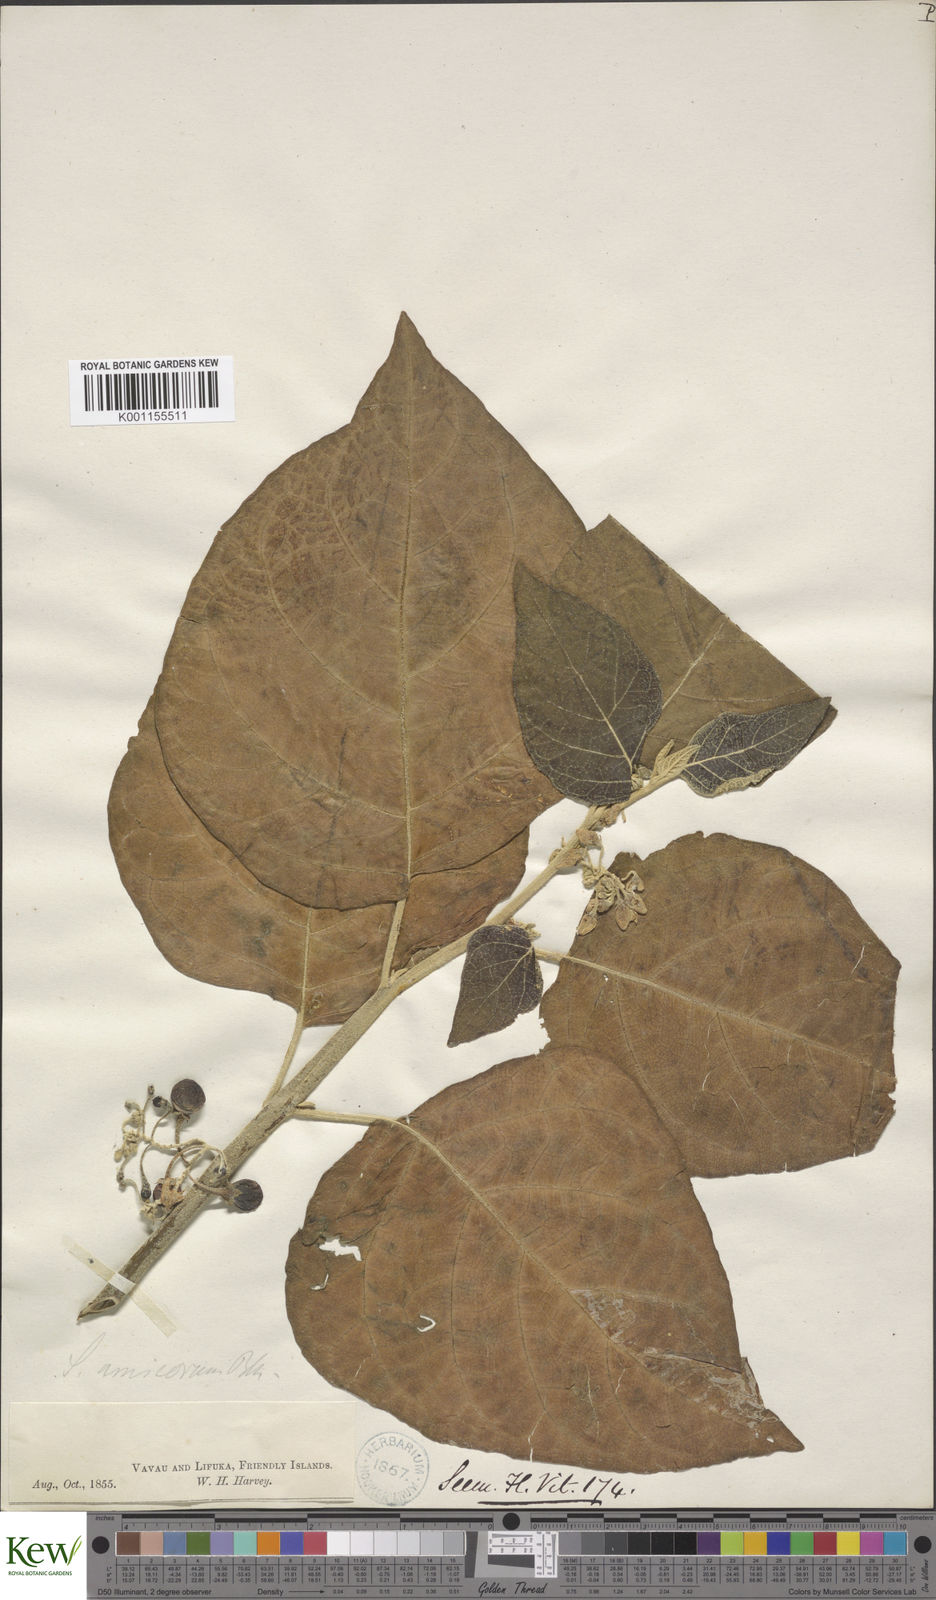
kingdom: Plantae
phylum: Tracheophyta
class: Magnoliopsida
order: Solanales
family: Solanaceae
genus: Solanum
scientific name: Solanum amicorum
